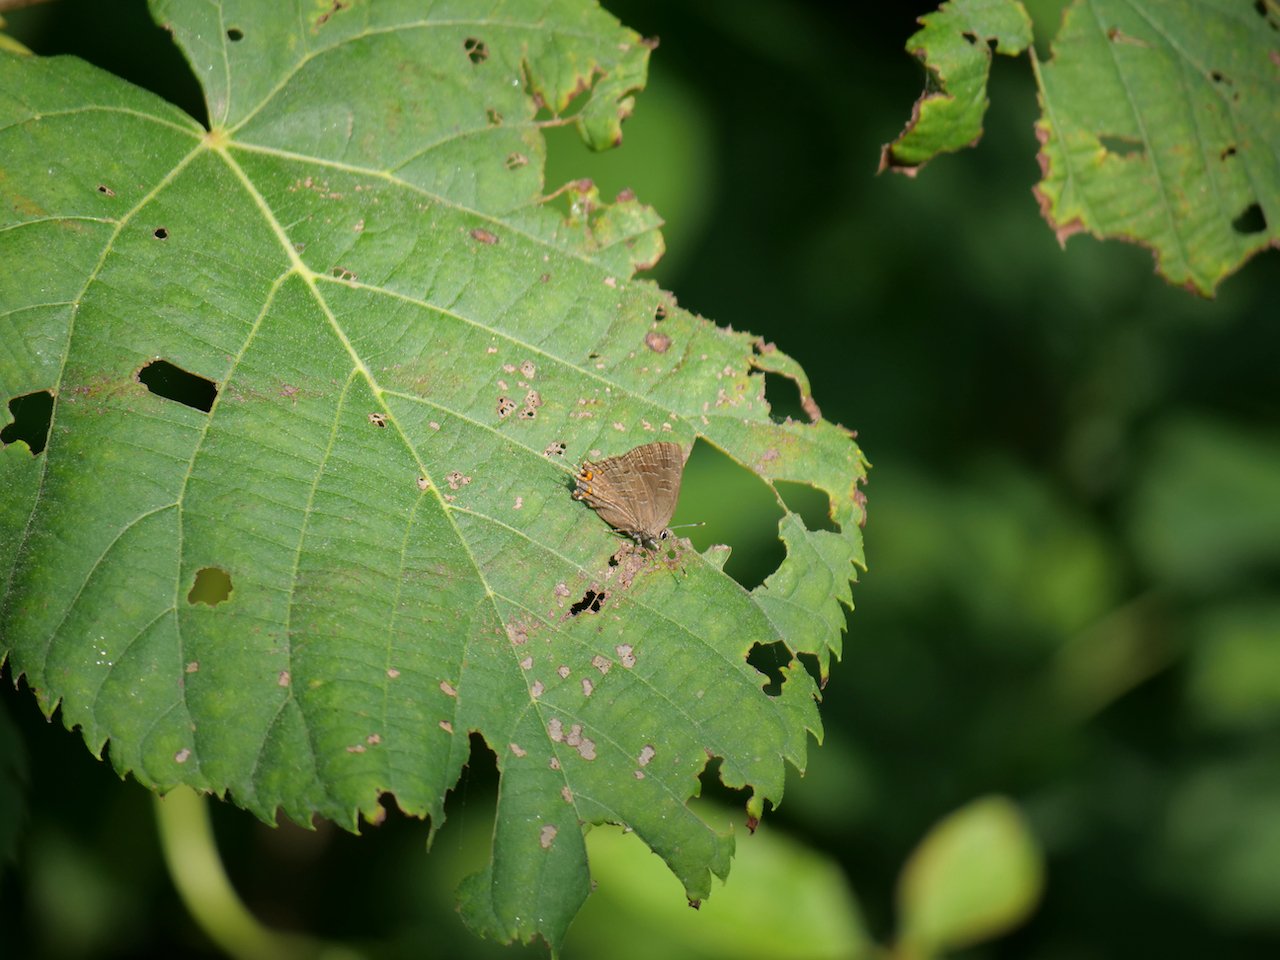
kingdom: Animalia
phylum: Arthropoda
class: Insecta
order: Lepidoptera
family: Lycaenidae
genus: Satyrium
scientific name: Satyrium
